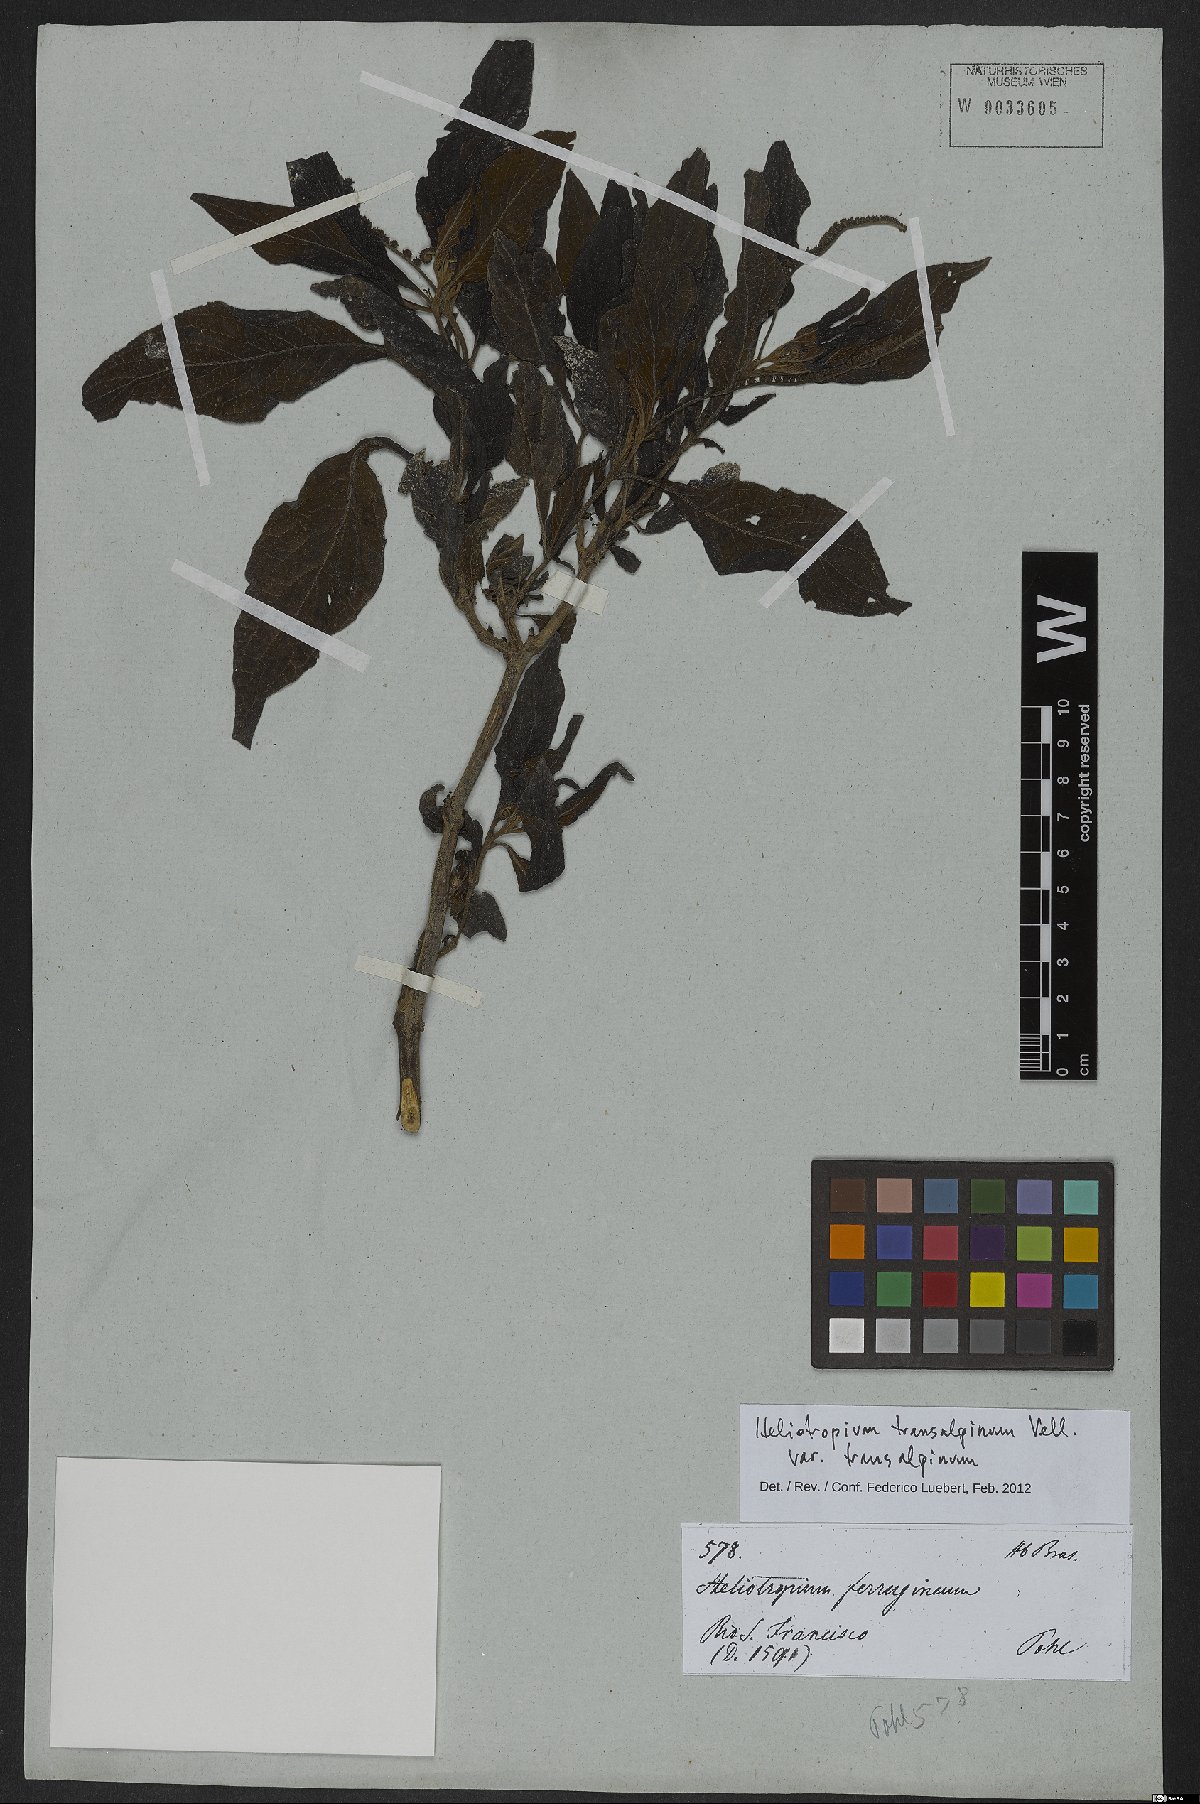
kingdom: Plantae
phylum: Tracheophyta
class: Magnoliopsida
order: Boraginales
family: Heliotropiaceae
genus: Heliotropium
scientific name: Heliotropium transalpinum
